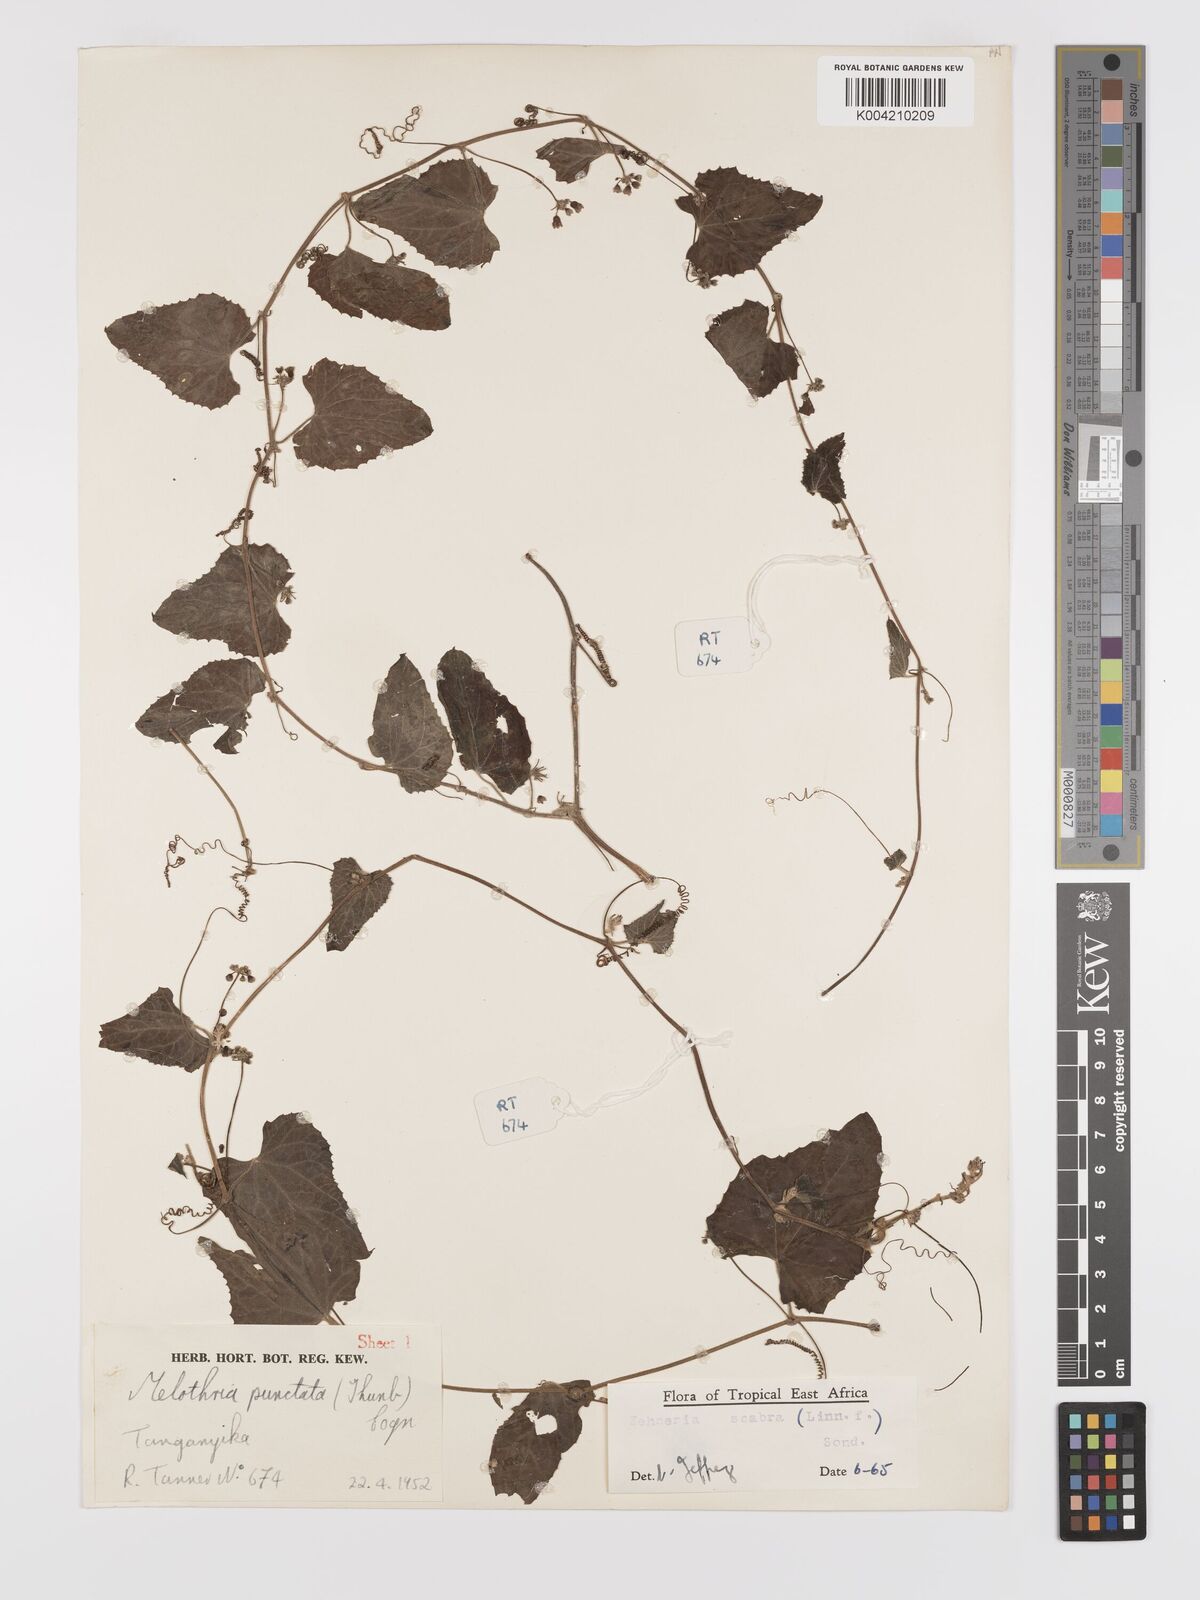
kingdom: Plantae
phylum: Tracheophyta
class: Magnoliopsida
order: Cucurbitales
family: Cucurbitaceae
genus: Zehneria
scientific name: Zehneria scabra
